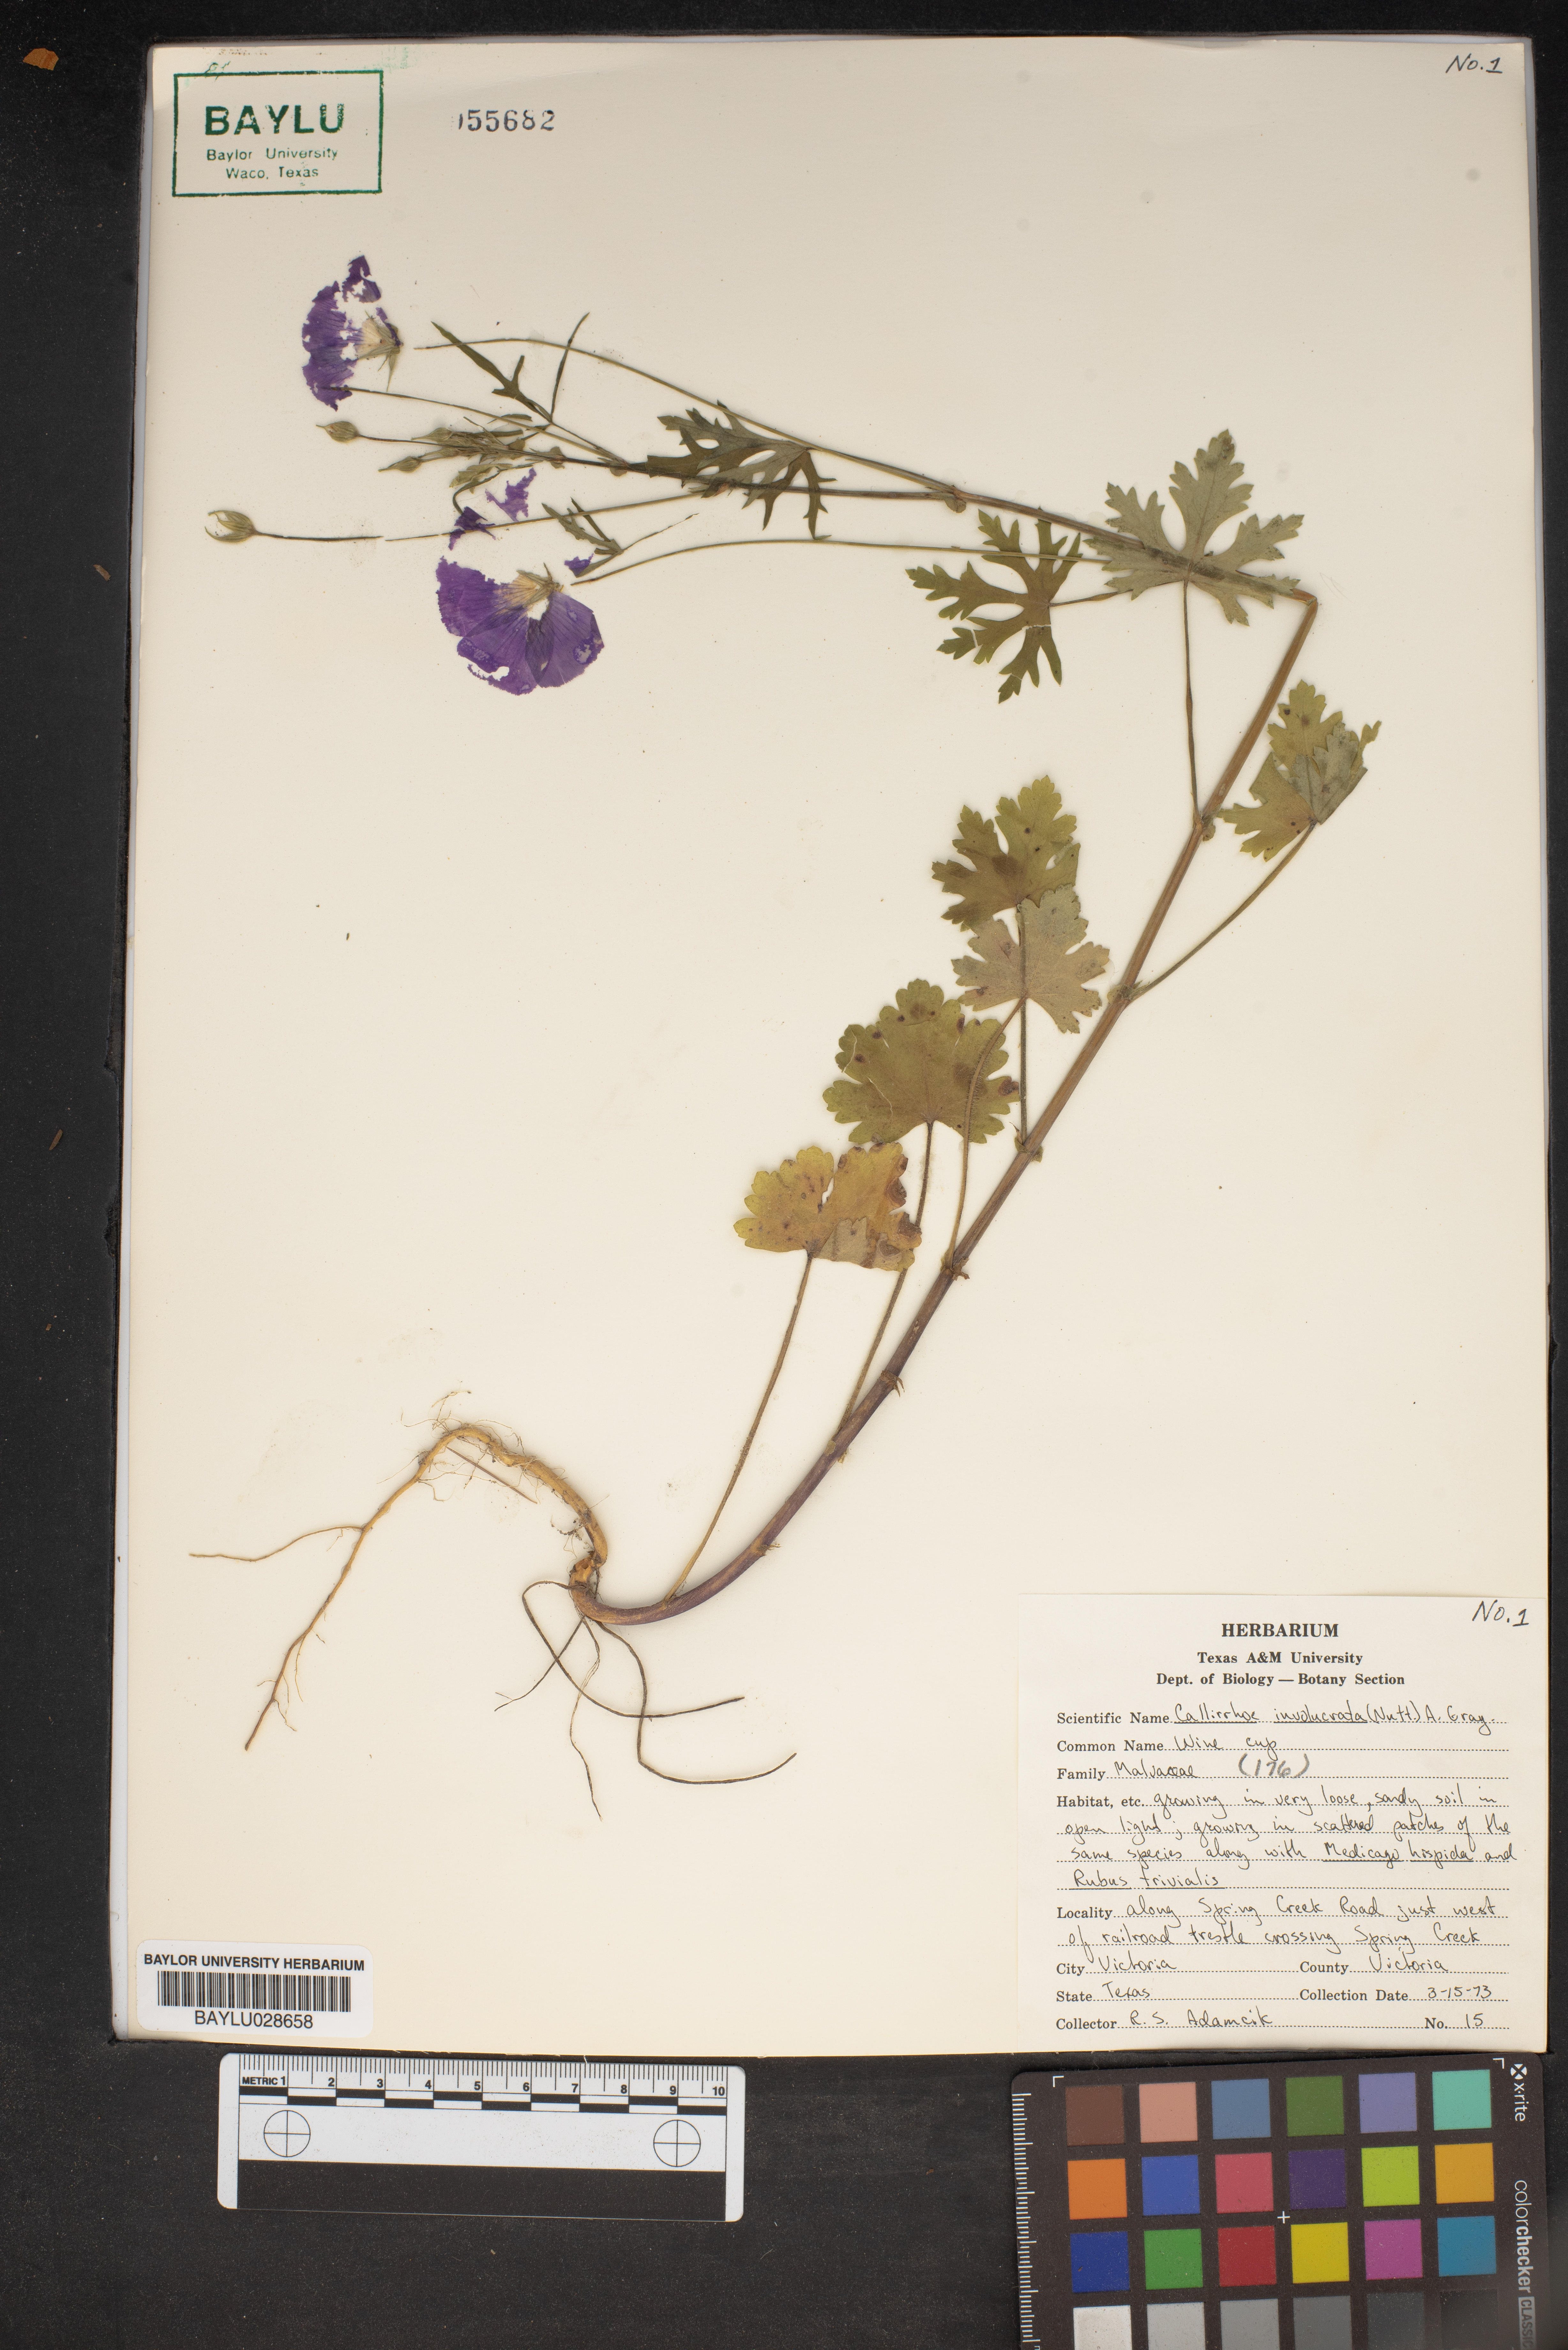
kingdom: Plantae
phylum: Tracheophyta
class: Magnoliopsida
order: Malvales
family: Malvaceae
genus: Callirhoe
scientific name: Callirhoe involucrata
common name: Purple poppy-mallow
